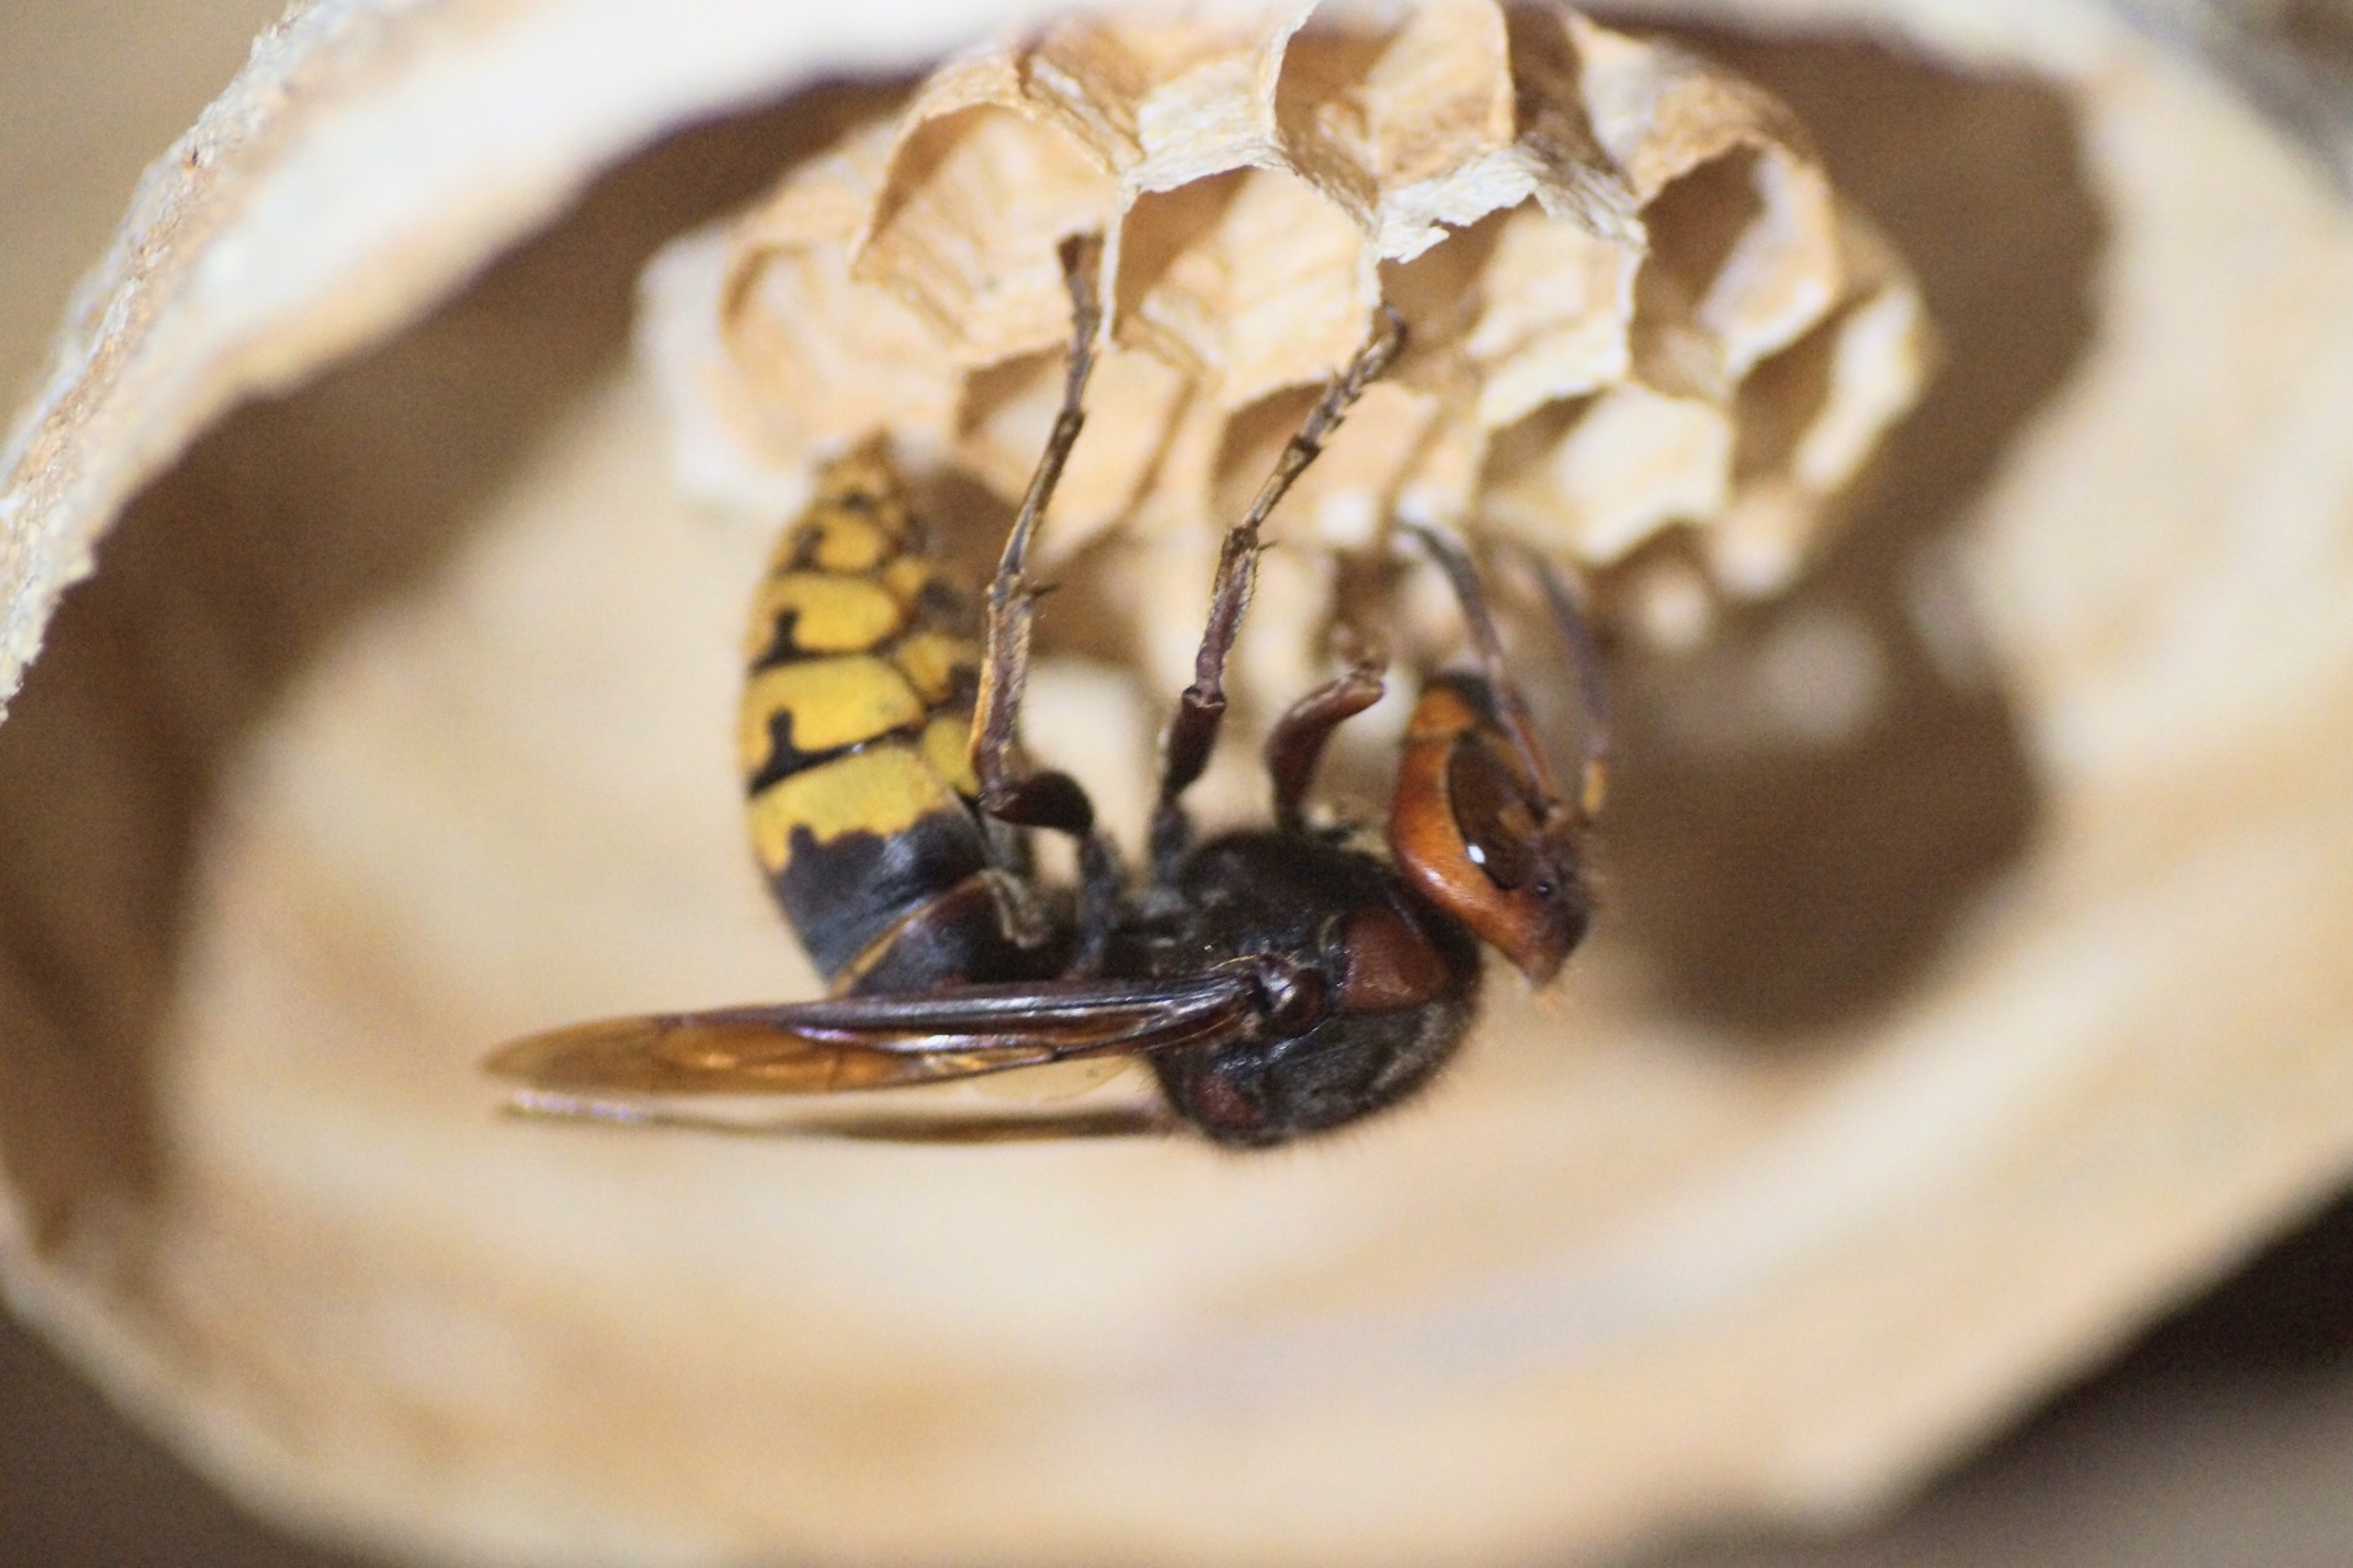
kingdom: Animalia
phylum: Arthropoda
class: Insecta
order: Hymenoptera
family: Vespidae
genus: Vespa
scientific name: Vespa crabro
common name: Stor gedehams
